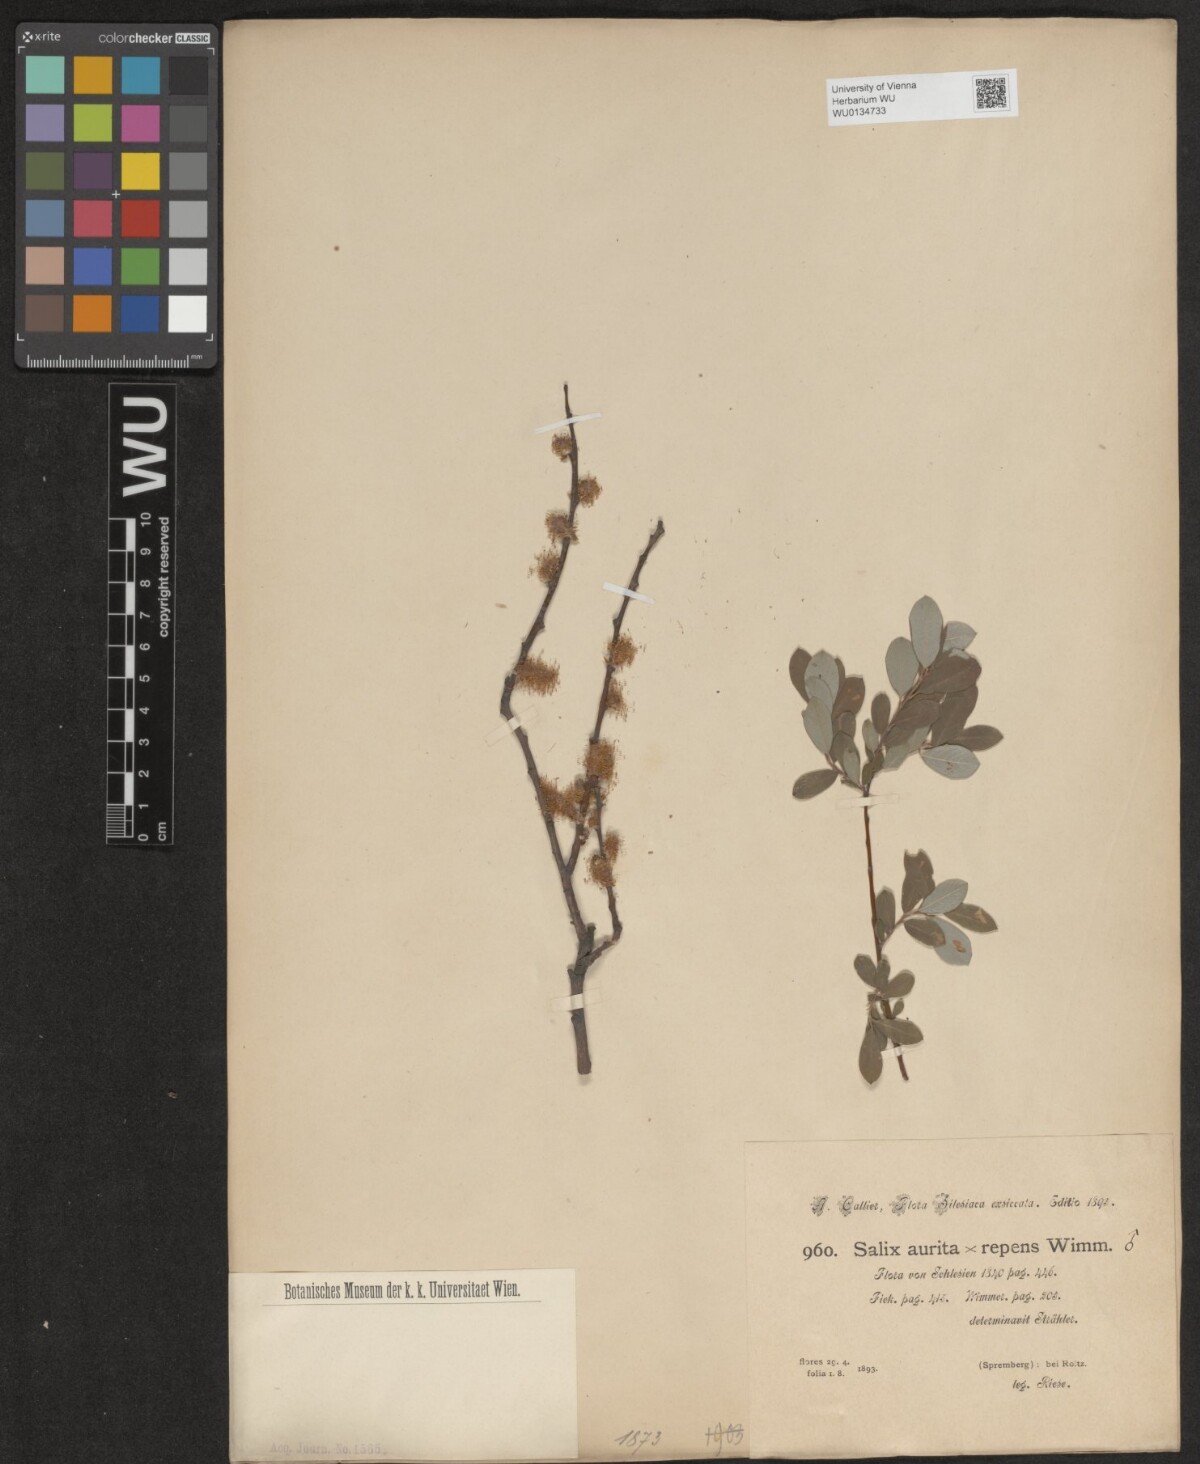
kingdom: Plantae
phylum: Tracheophyta
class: Magnoliopsida
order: Malpighiales
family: Salicaceae
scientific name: Salicaceae
